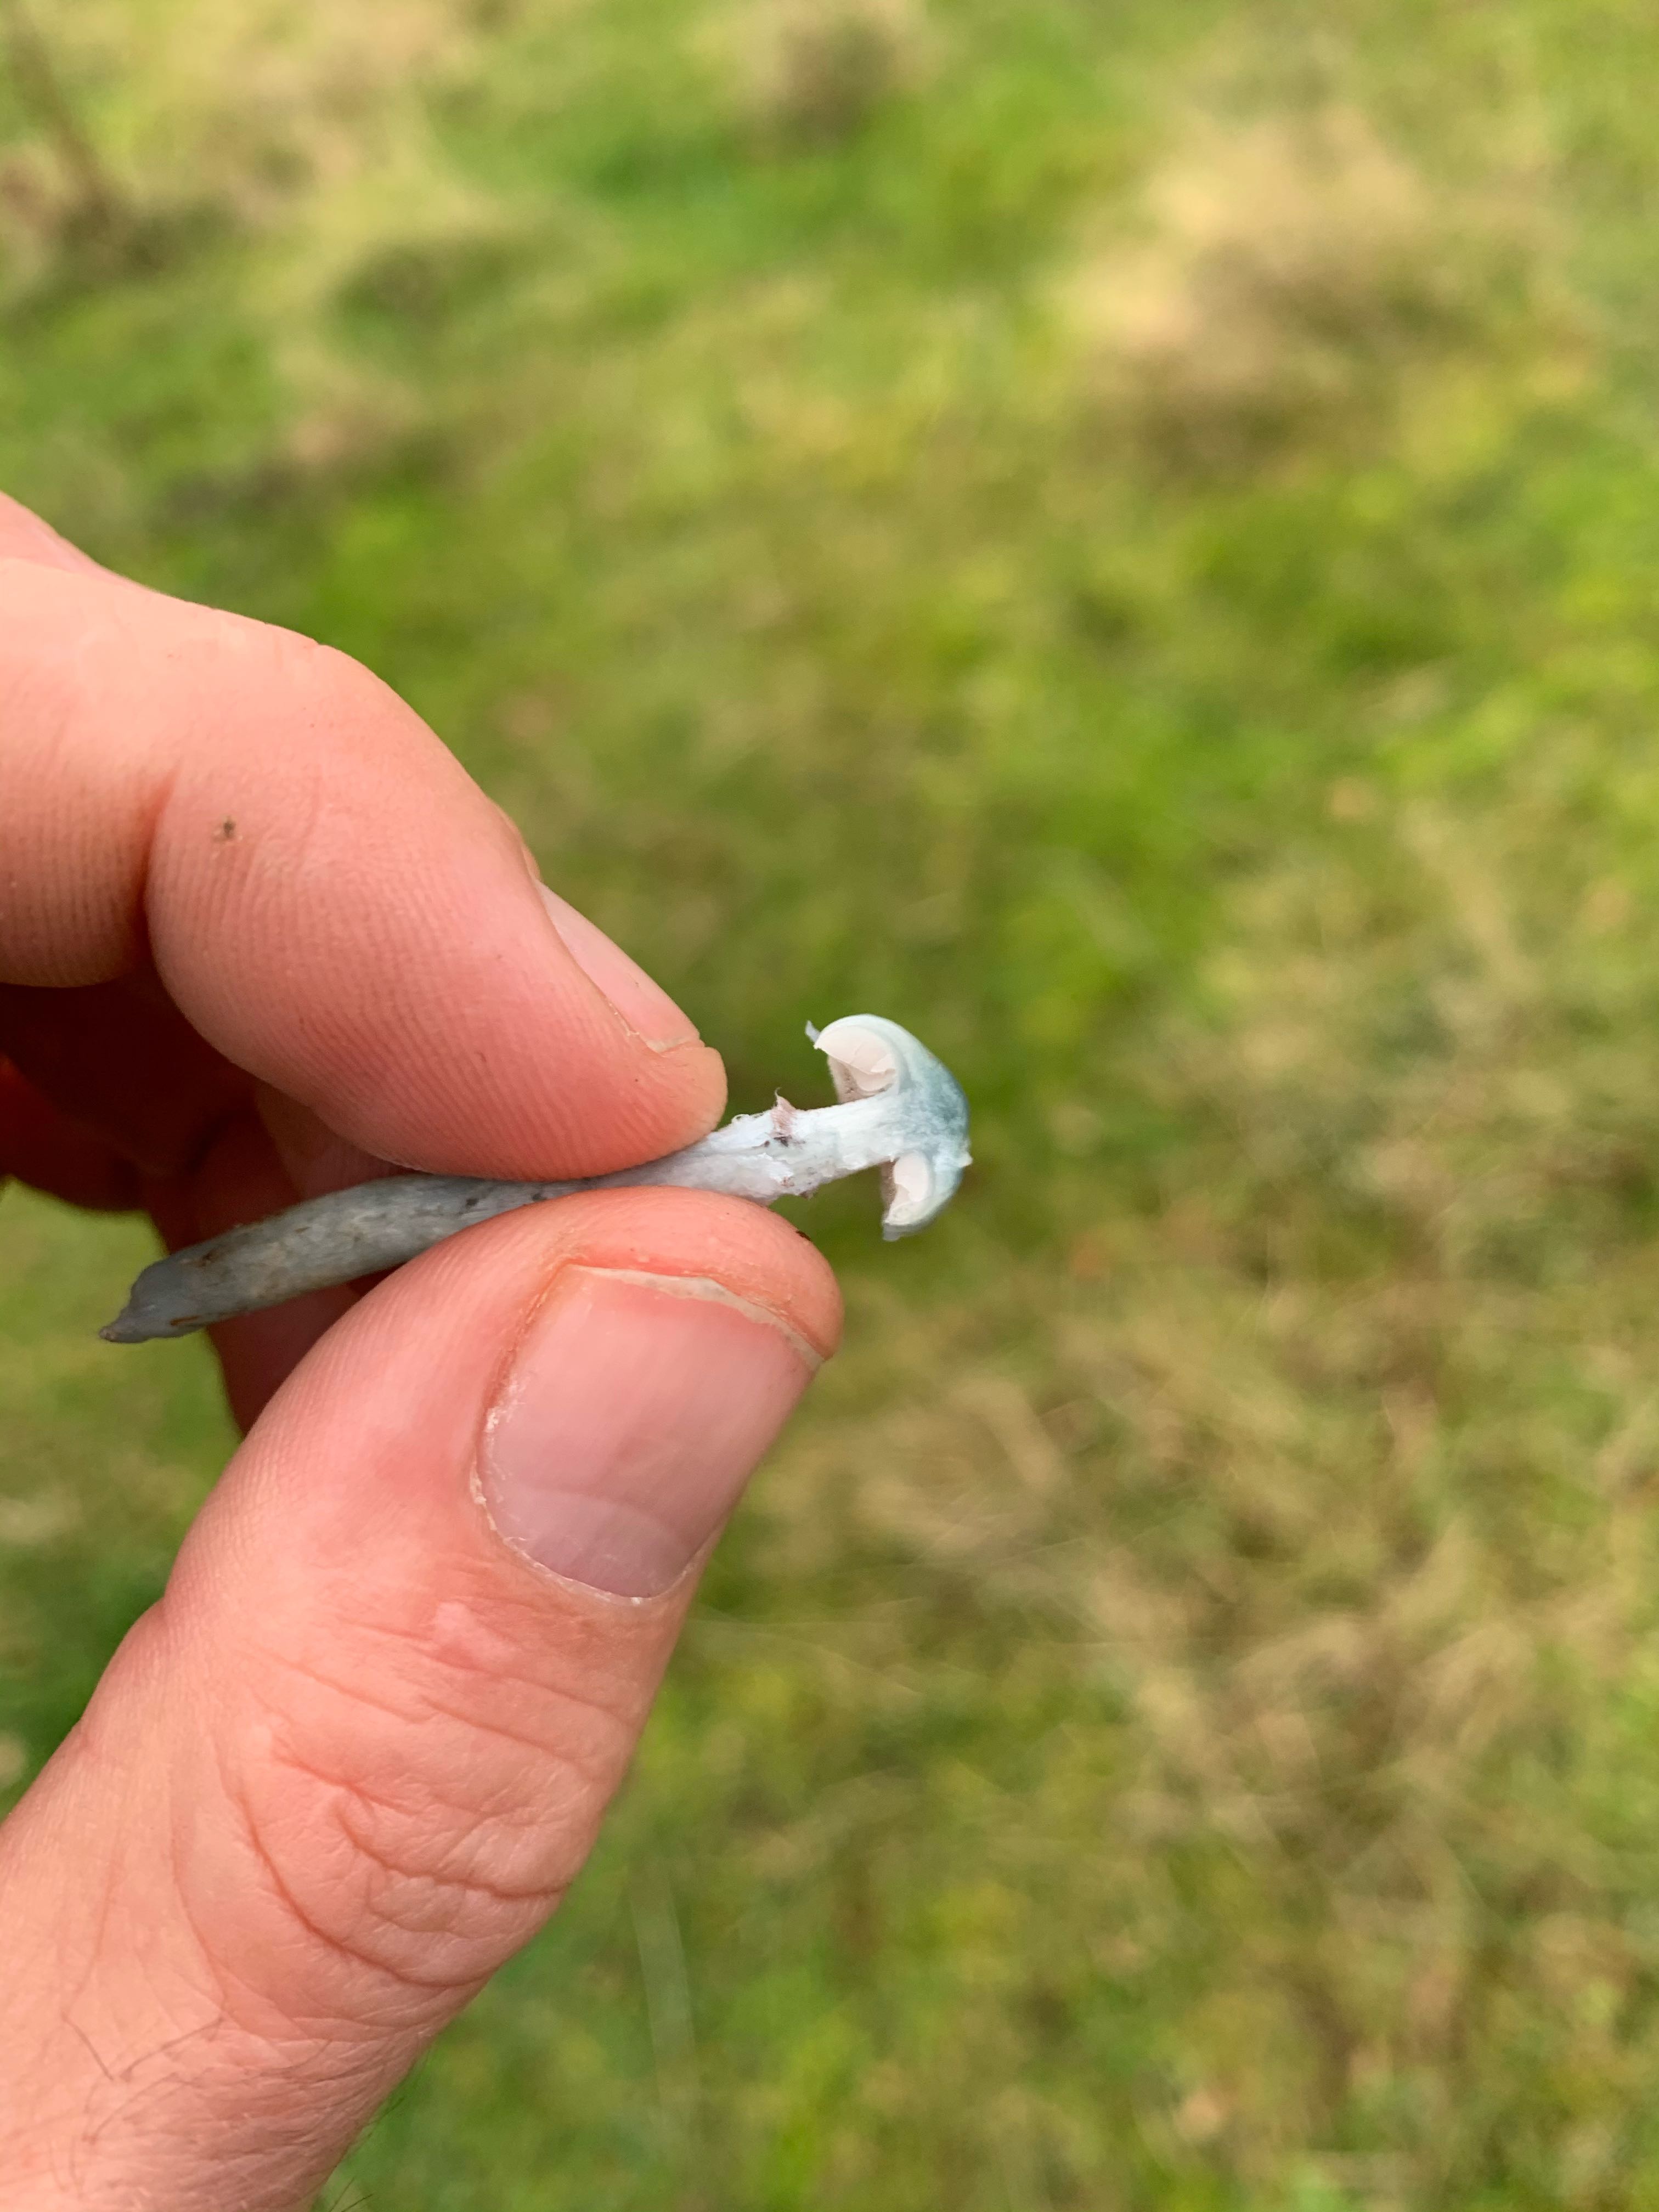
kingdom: Fungi
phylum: Basidiomycota
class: Agaricomycetes
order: Agaricales
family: Strophariaceae
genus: Stropharia
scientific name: Stropharia pseudocyanea
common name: blegblå bredblad
